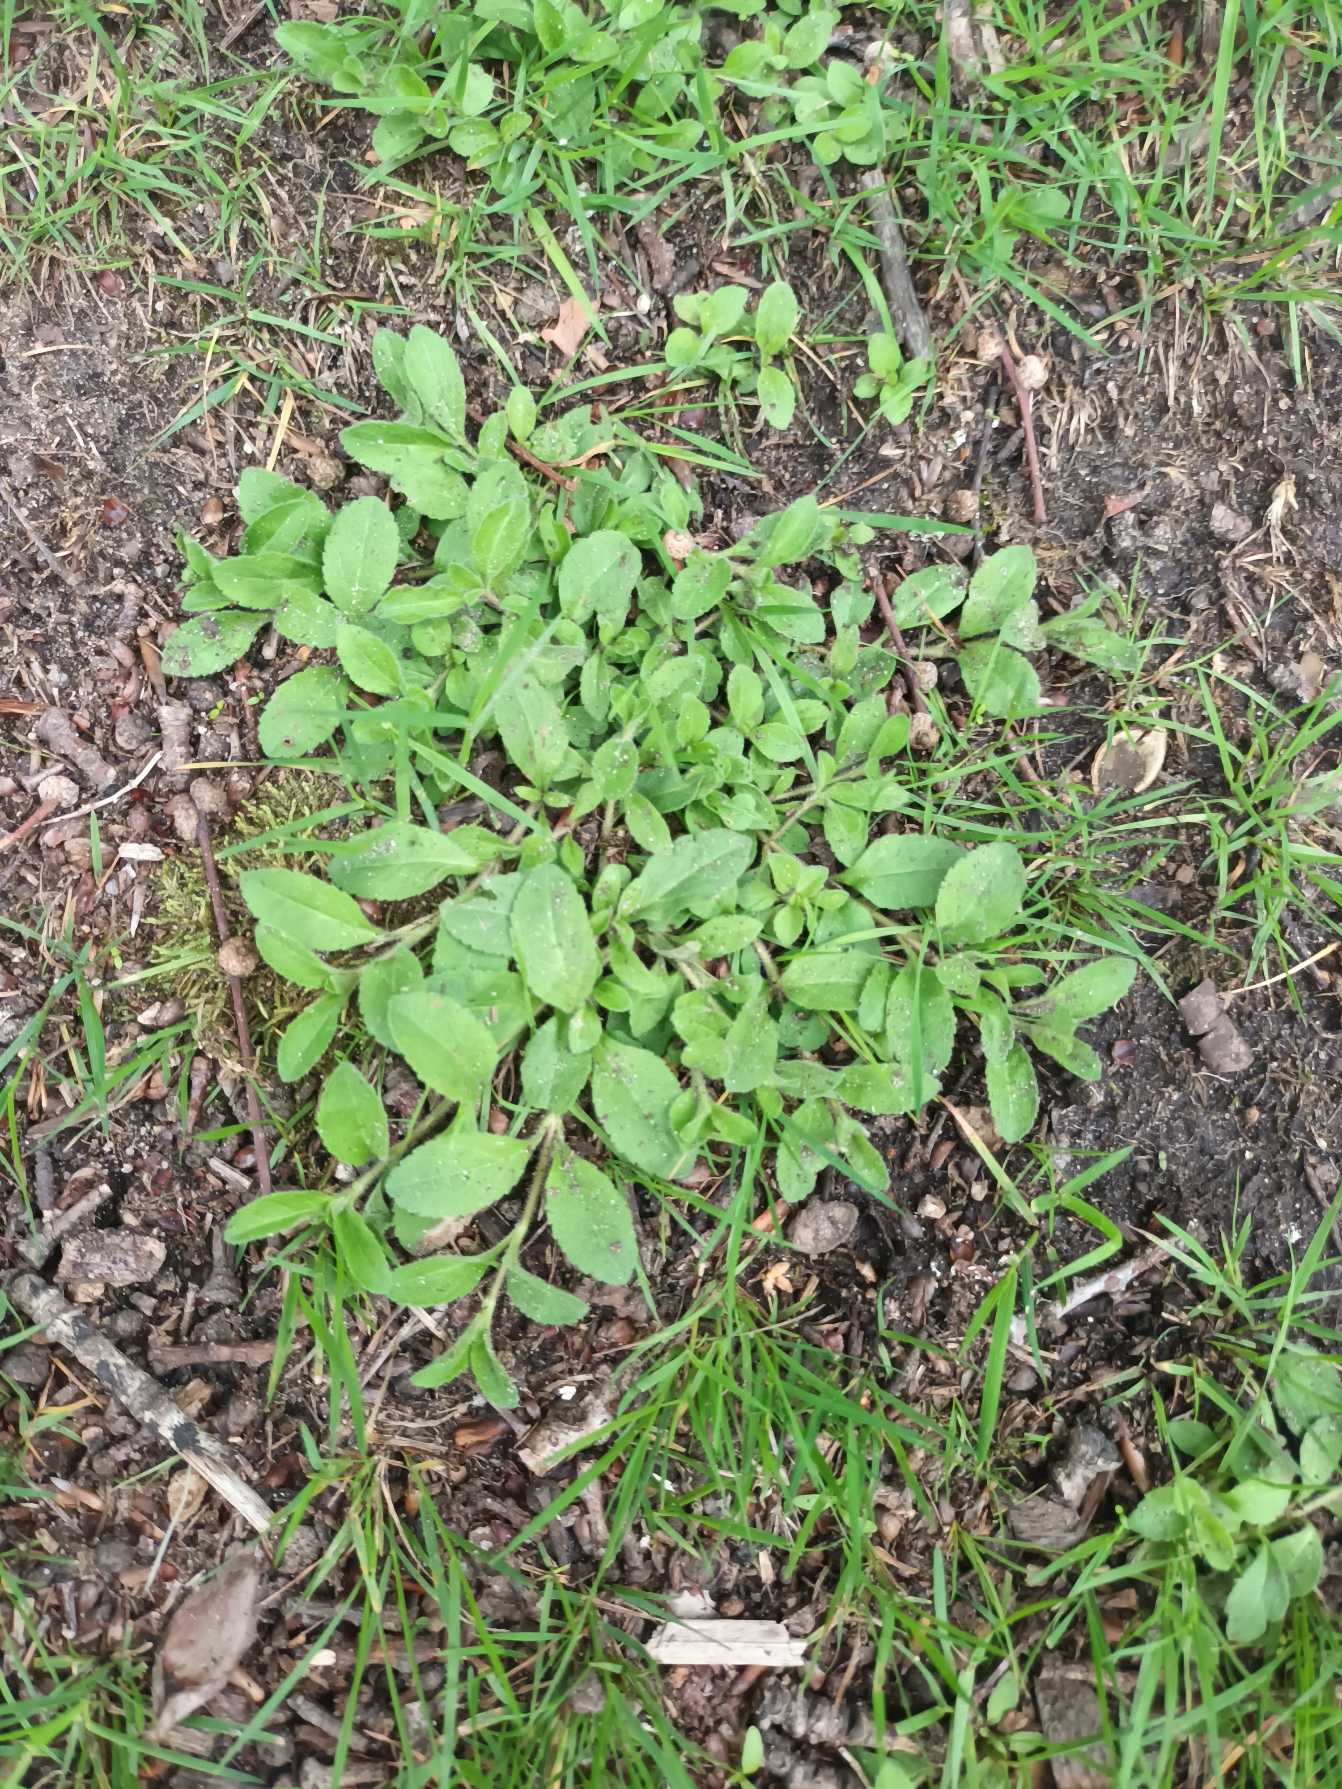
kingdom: Plantae
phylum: Tracheophyta
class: Magnoliopsida
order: Lamiales
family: Plantaginaceae
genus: Veronica
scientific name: Veronica officinalis
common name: Læge-ærenpris
